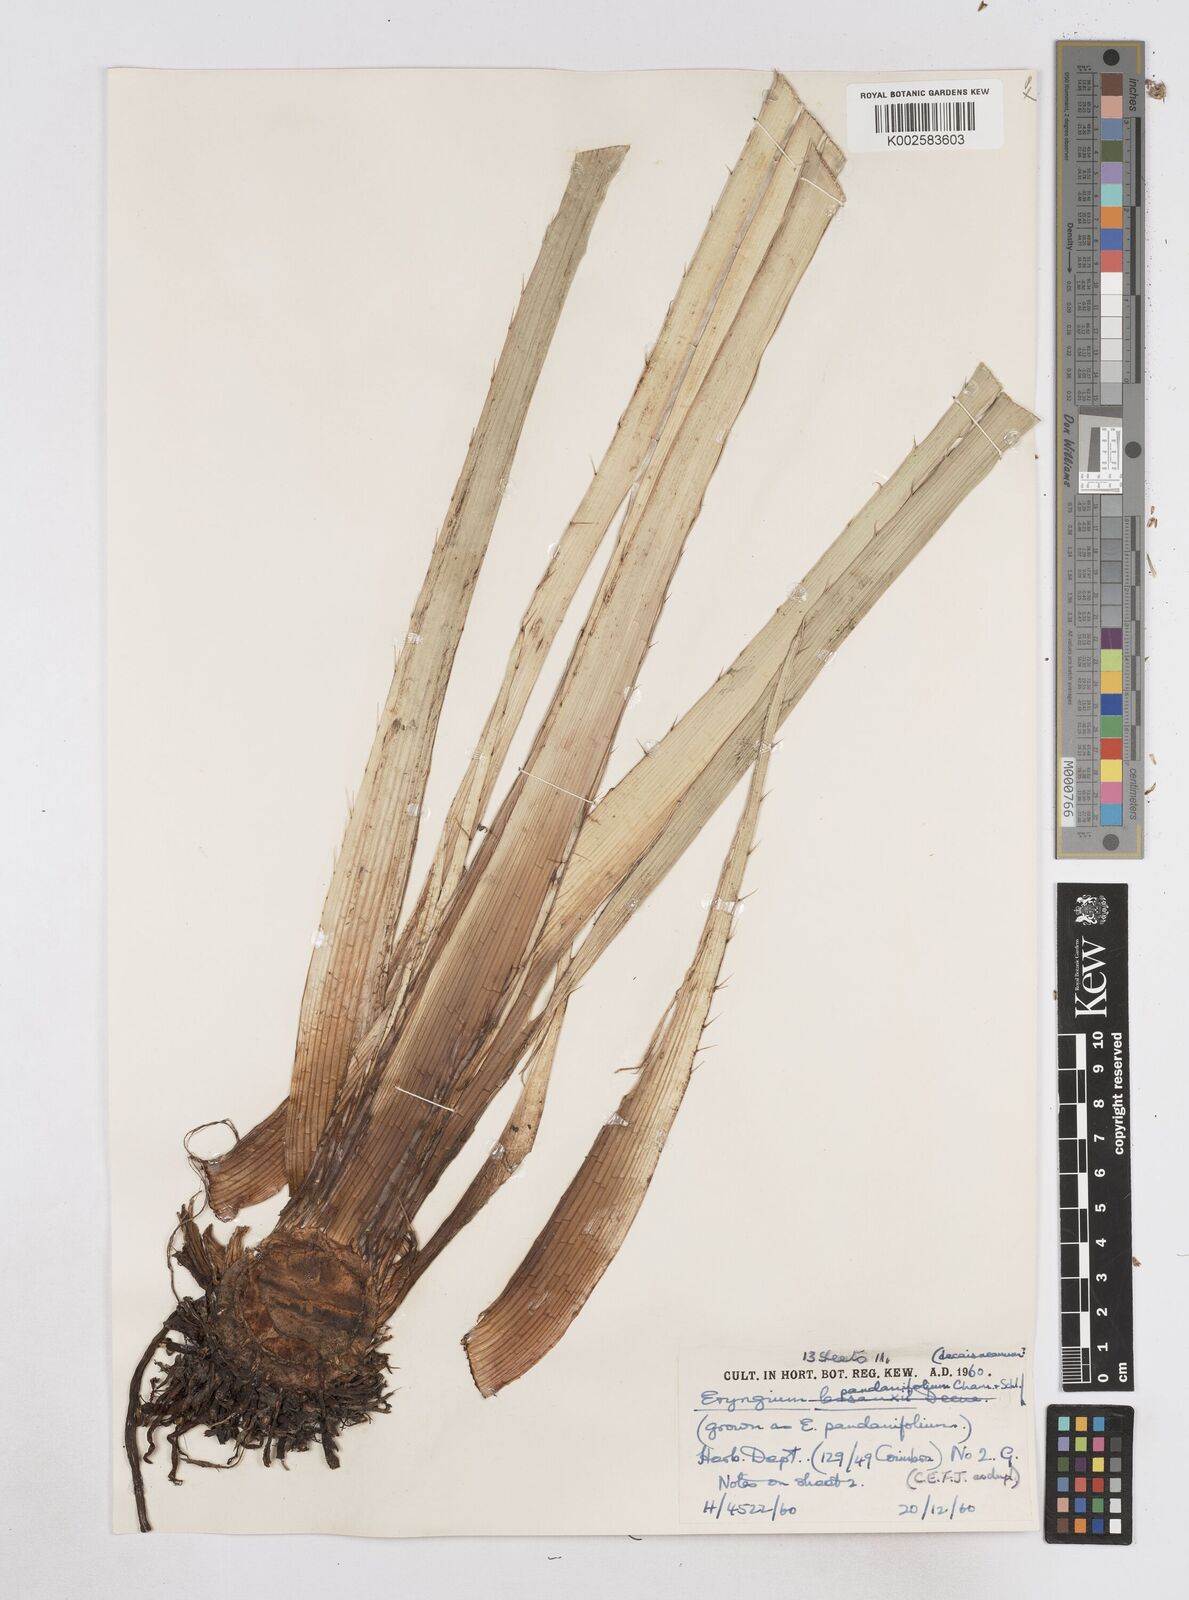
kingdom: Plantae
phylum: Tracheophyta
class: Magnoliopsida
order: Apiales
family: Apiaceae
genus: Eryngium
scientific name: Eryngium pandanifolium
